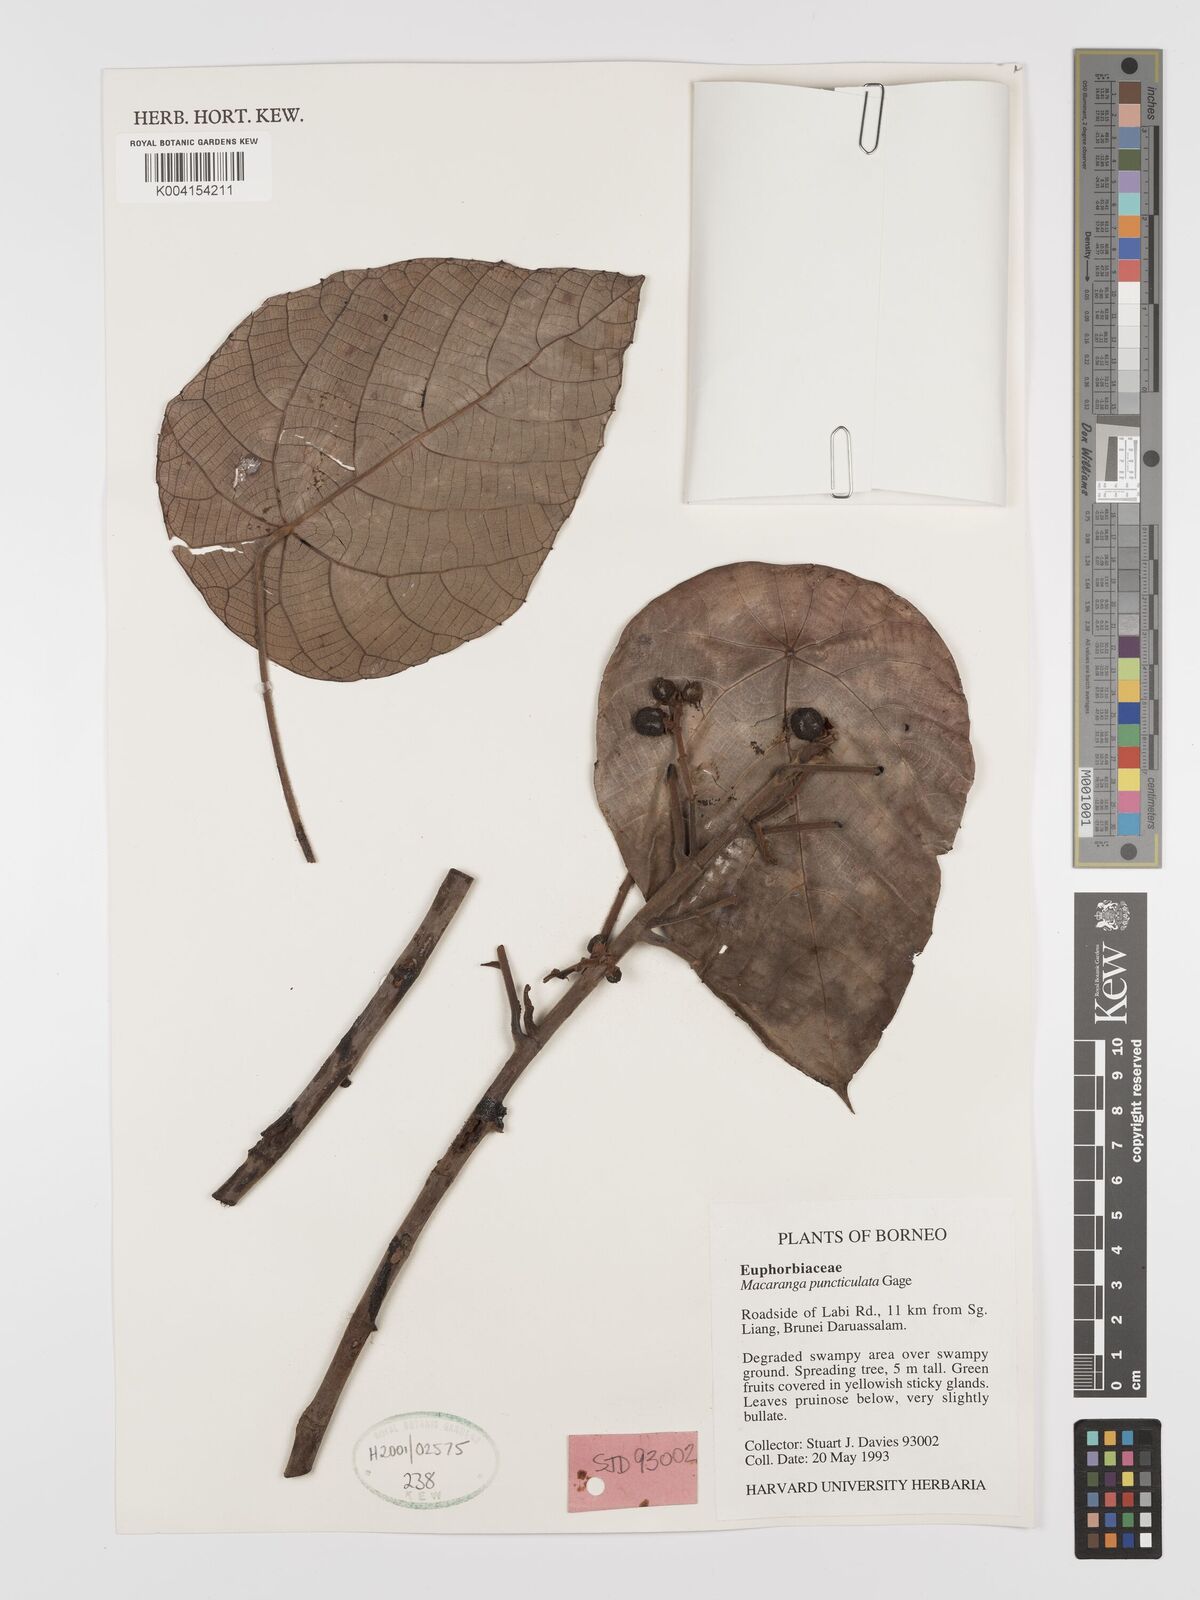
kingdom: Plantae
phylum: Tracheophyta
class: Magnoliopsida
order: Malpighiales
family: Euphorbiaceae
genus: Macaranga
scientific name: Macaranga puncticulata
